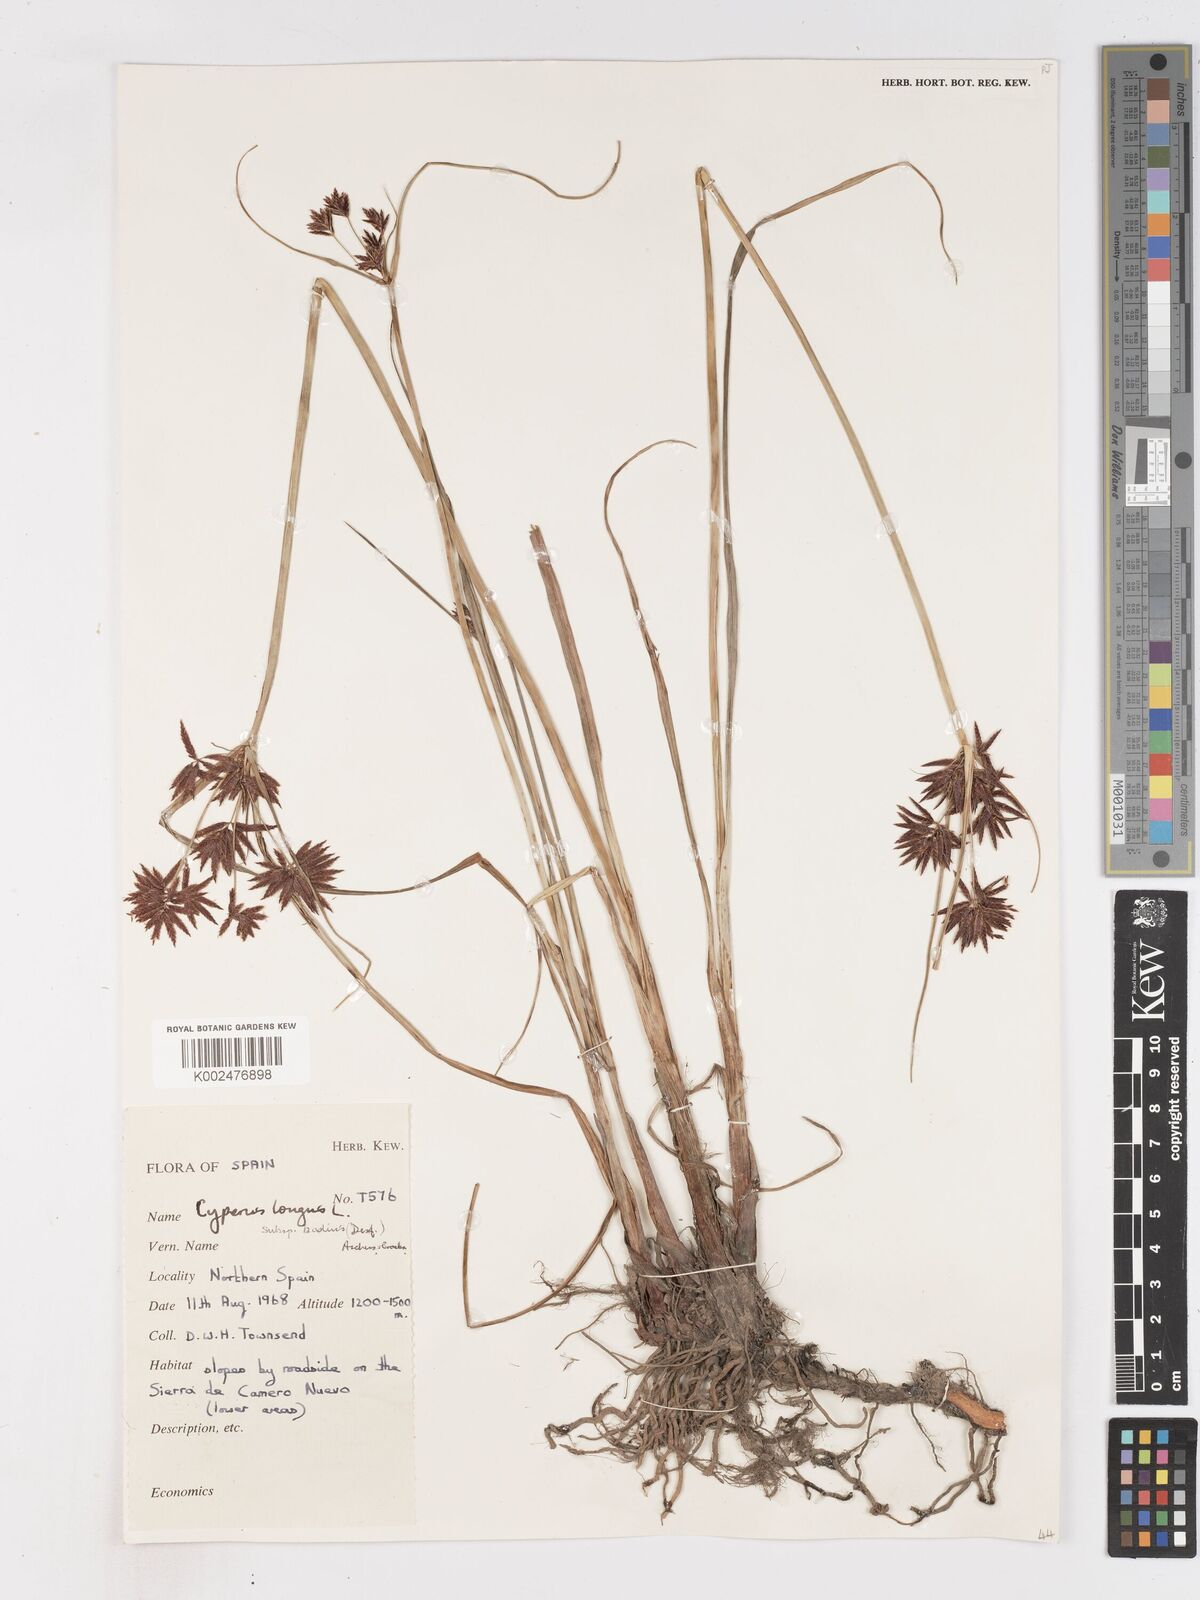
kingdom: Plantae
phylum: Tracheophyta
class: Liliopsida
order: Poales
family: Cyperaceae
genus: Cyperus
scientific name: Cyperus longus
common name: Galingale
